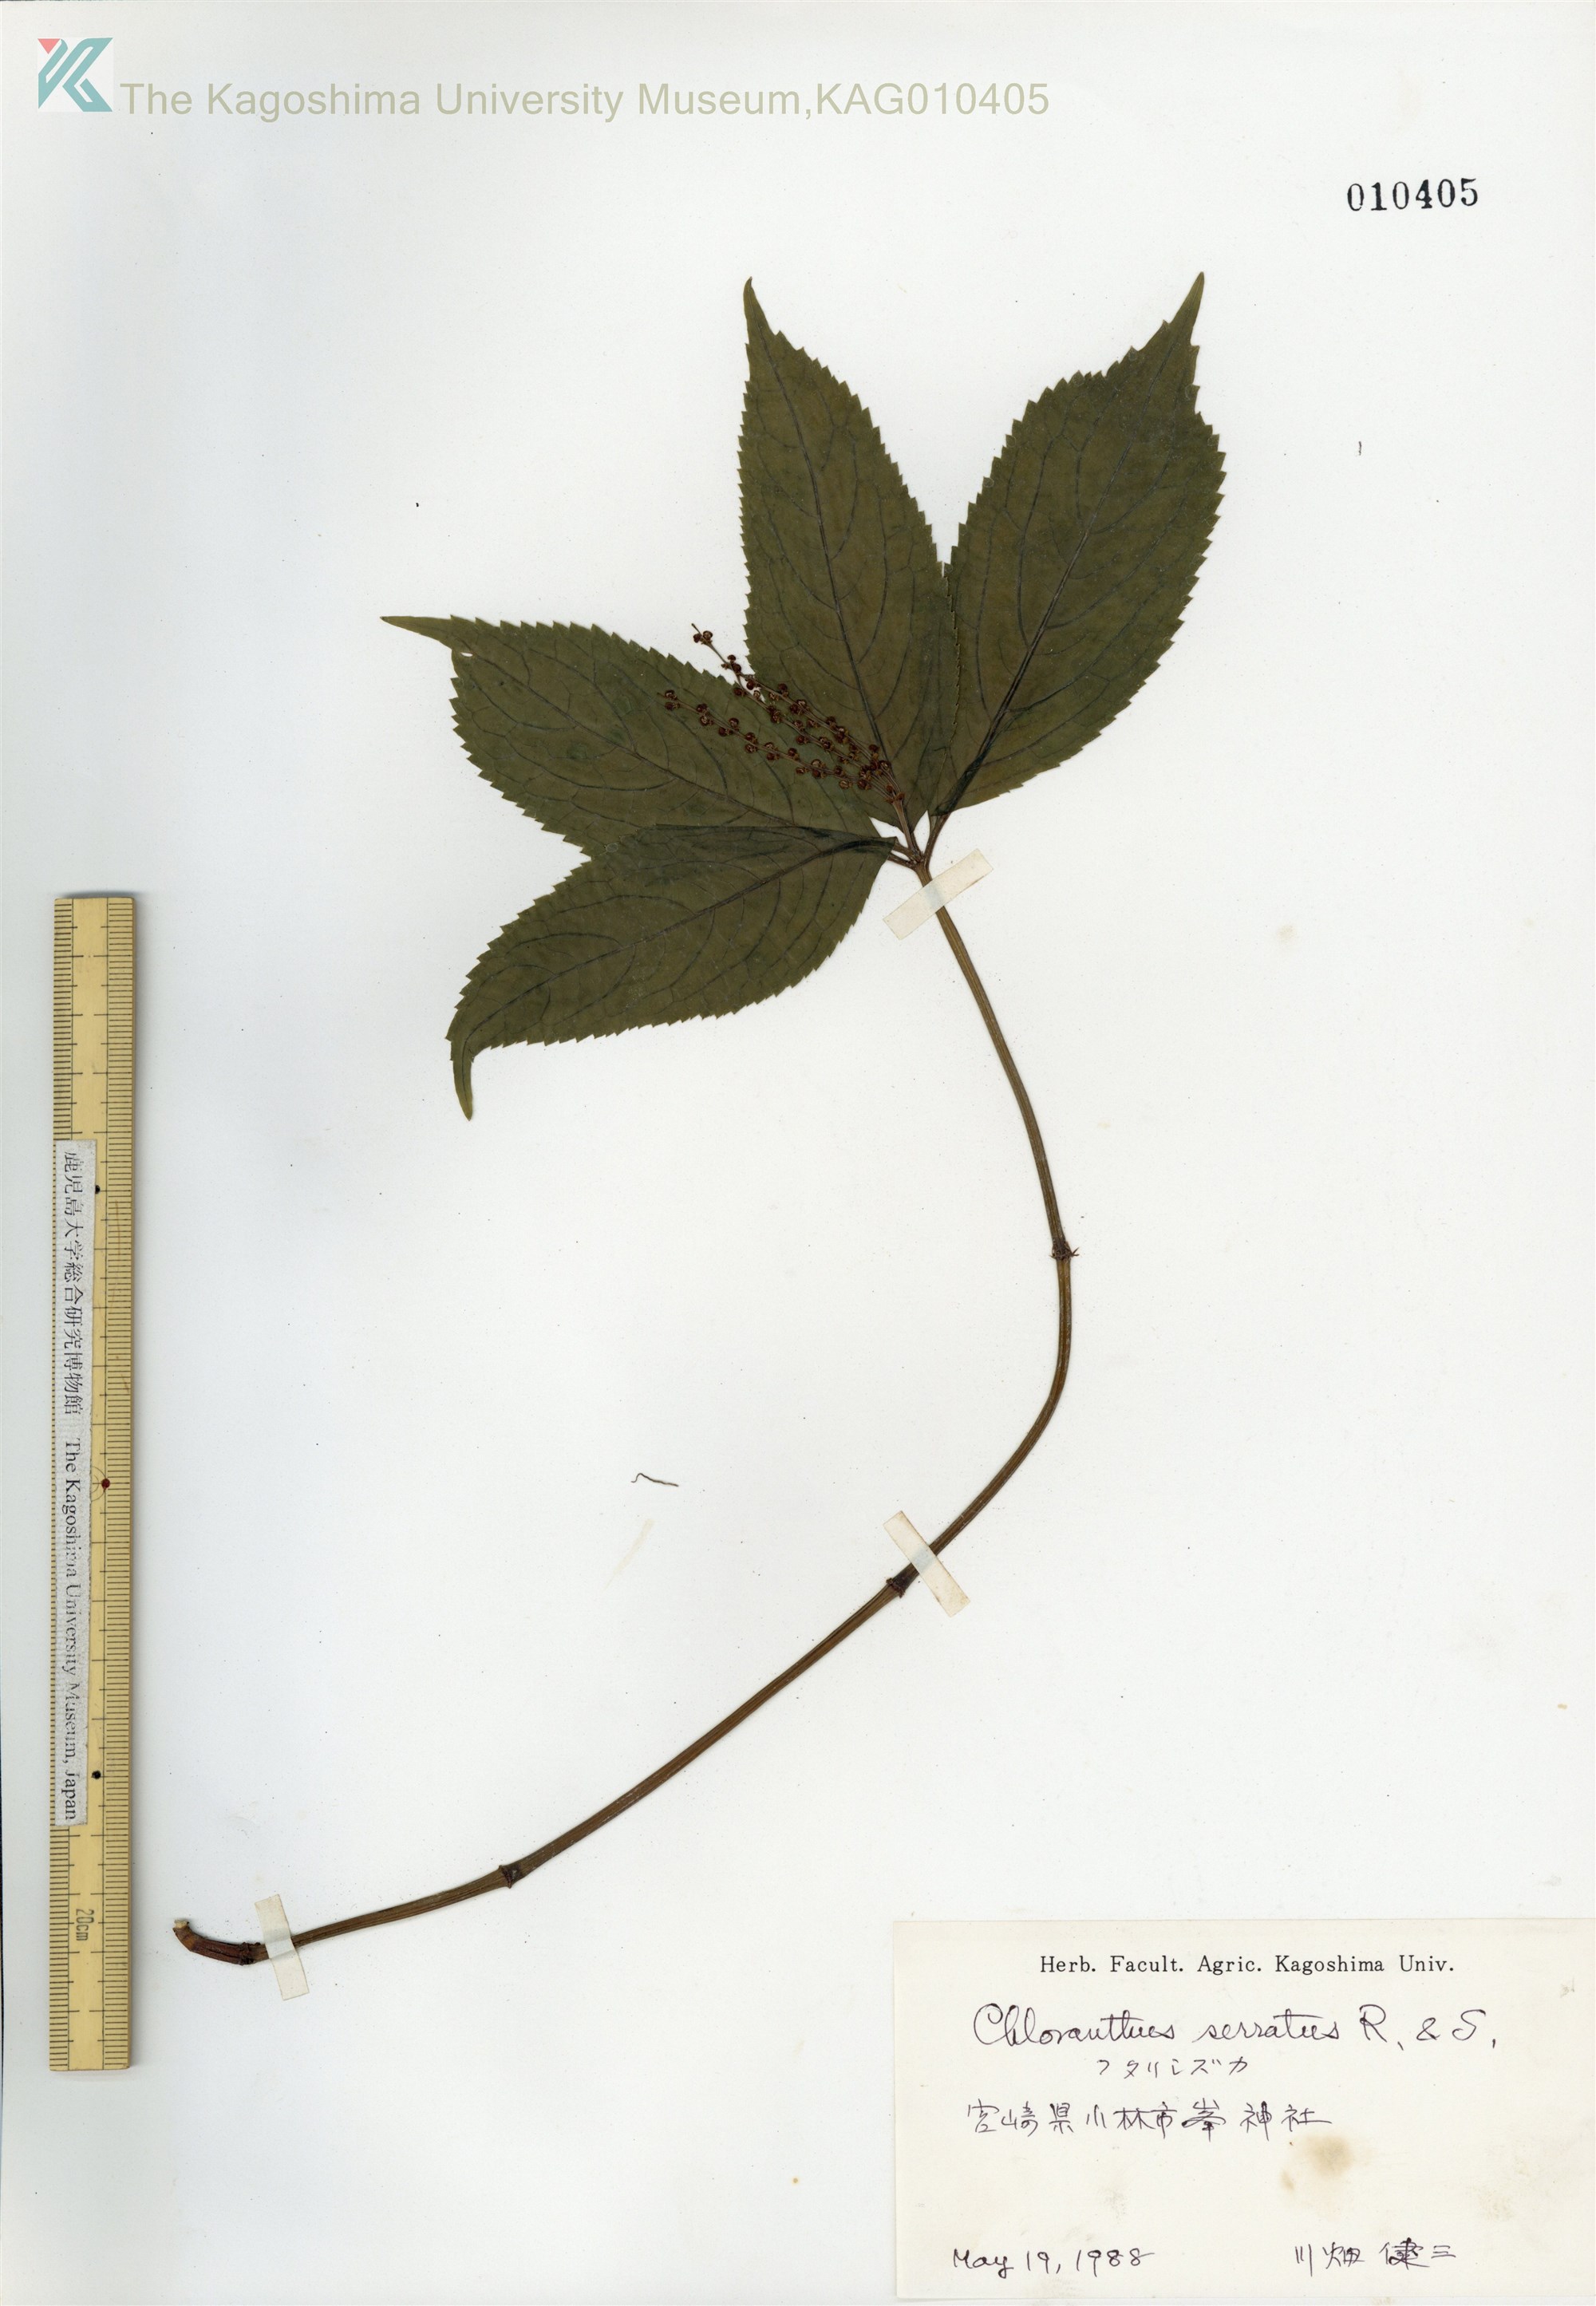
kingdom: Plantae
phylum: Tracheophyta
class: Magnoliopsida
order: Chloranthales
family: Chloranthaceae
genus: Chloranthus
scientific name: Chloranthus serratus
